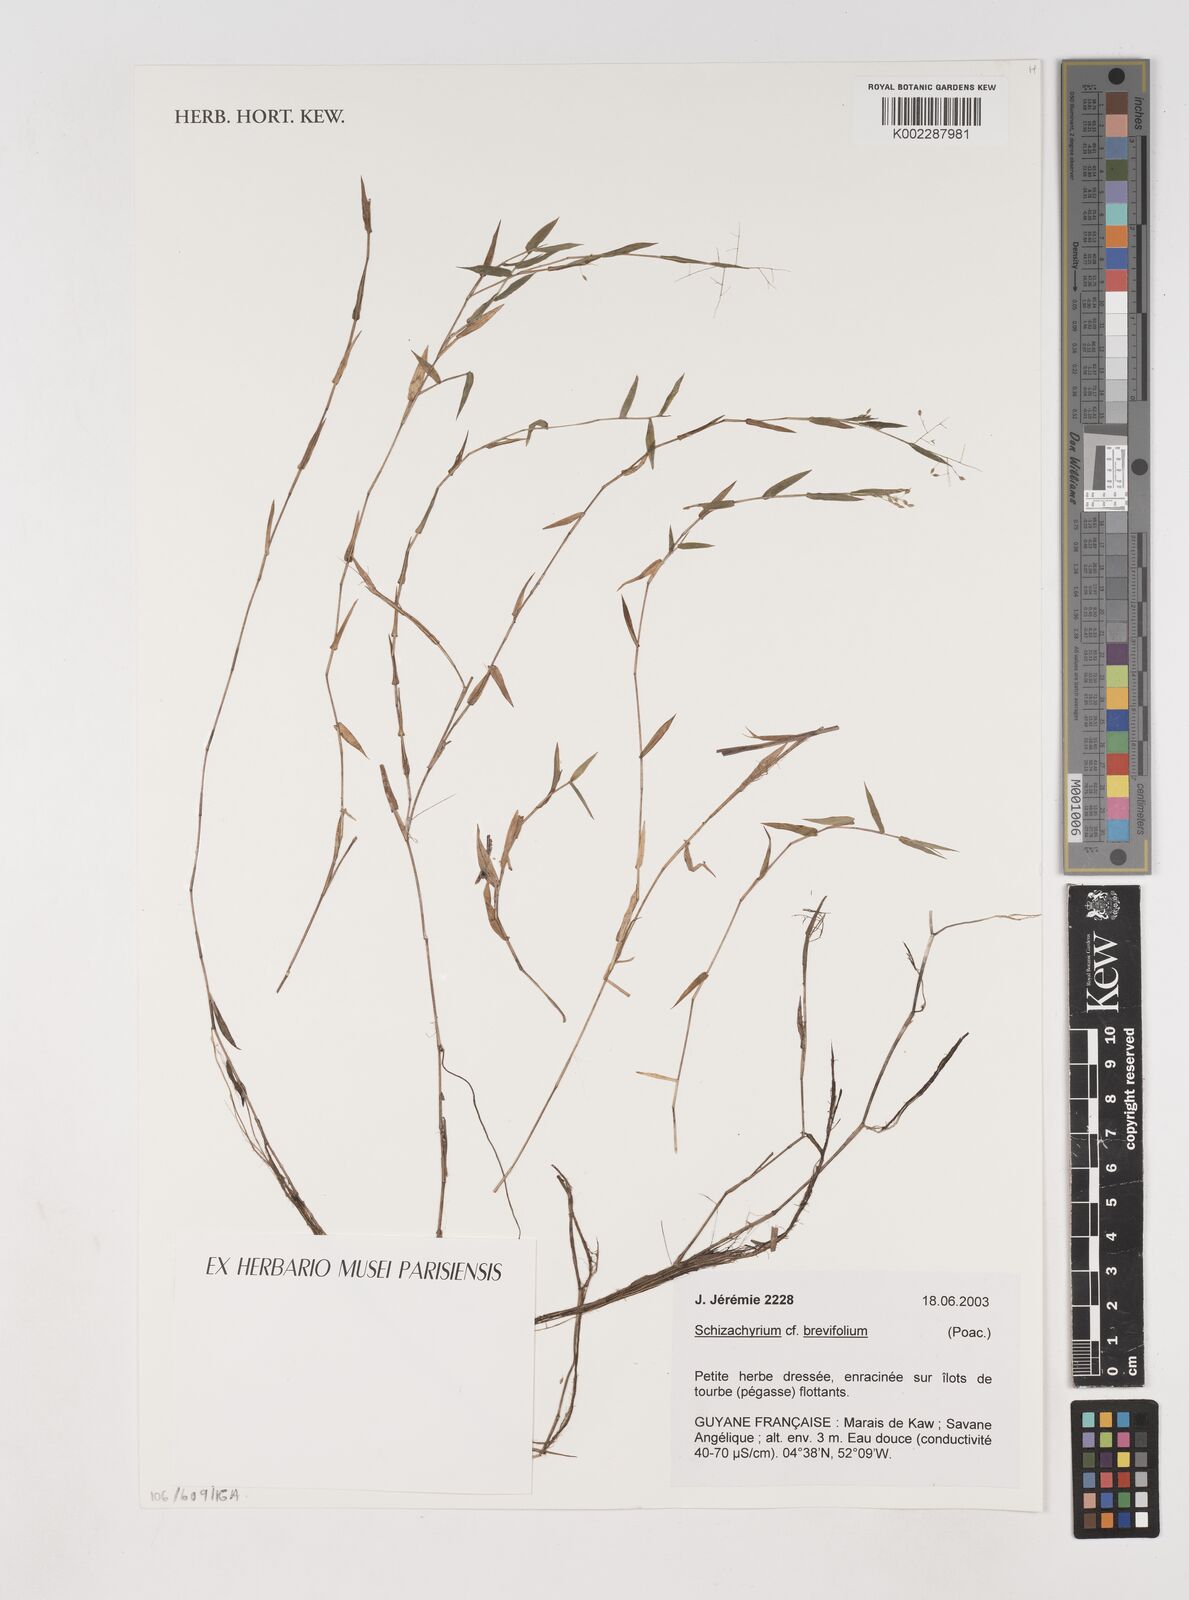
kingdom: Plantae
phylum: Tracheophyta
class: Liliopsida
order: Poales
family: Poaceae
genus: Schizachyrium
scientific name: Schizachyrium brevifolium
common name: Serillo dulce
